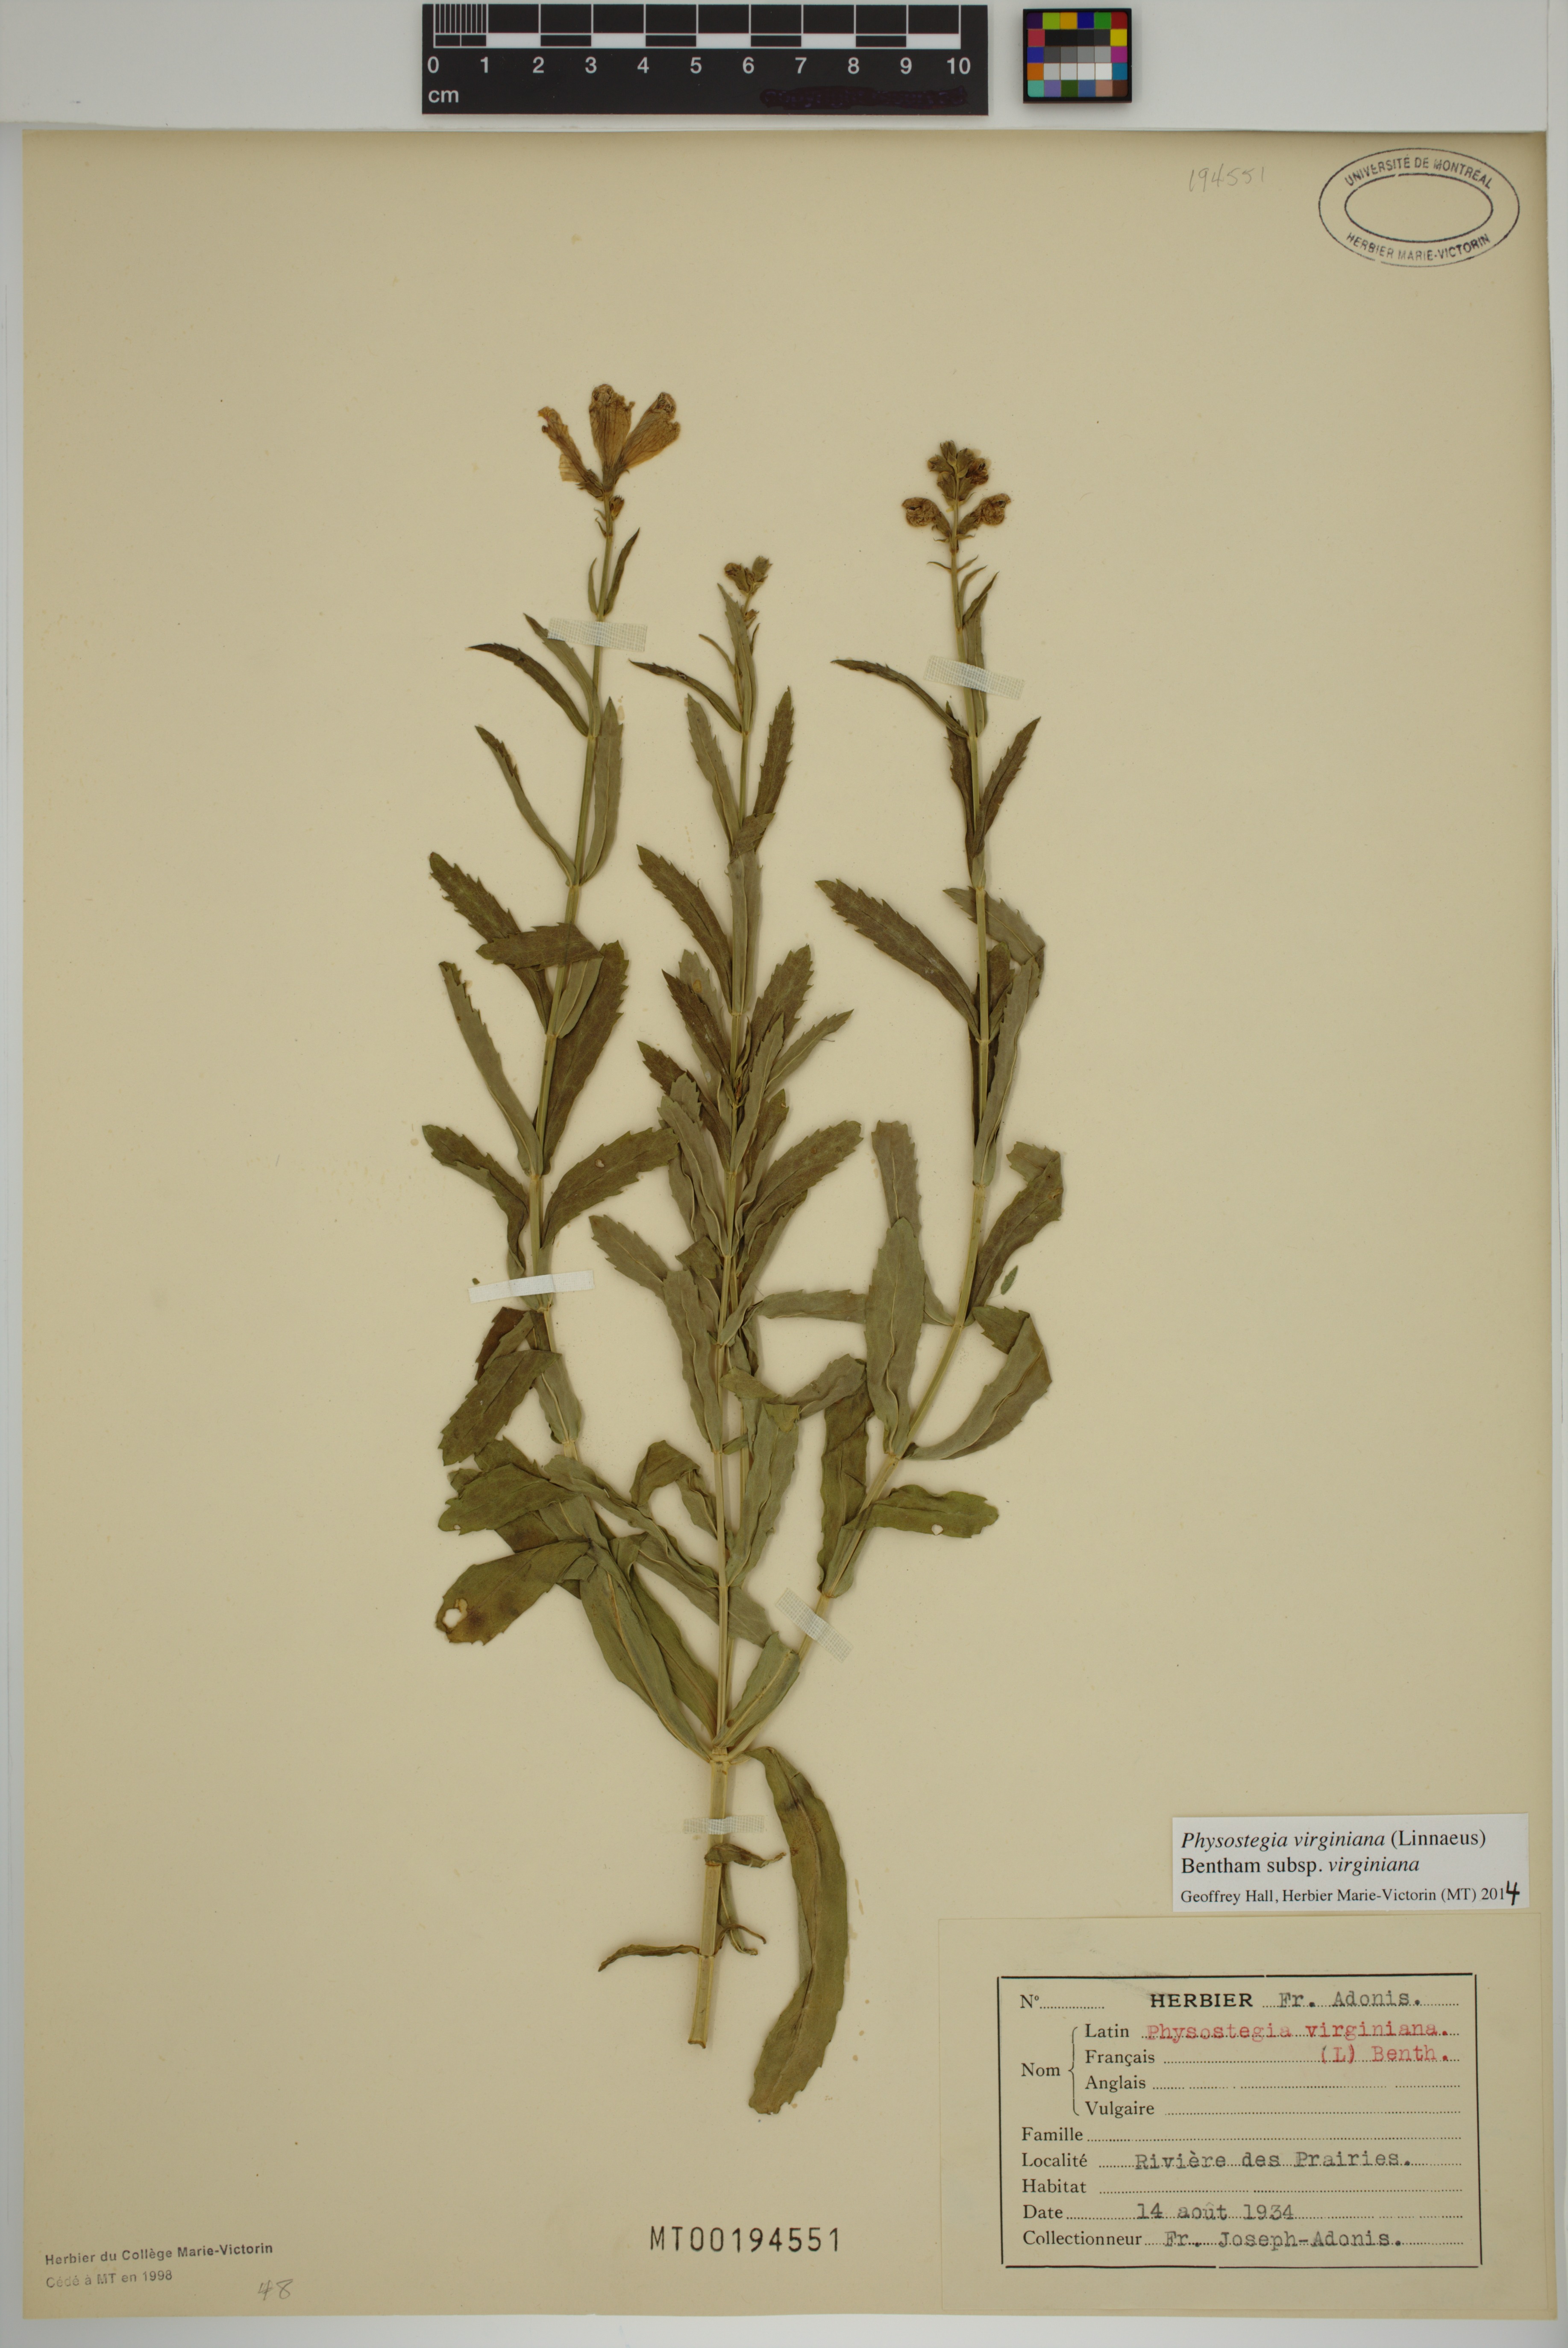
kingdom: Plantae
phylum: Tracheophyta
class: Magnoliopsida
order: Lamiales
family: Lamiaceae
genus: Physostegia
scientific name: Physostegia virginiana
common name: Obedient-plant
